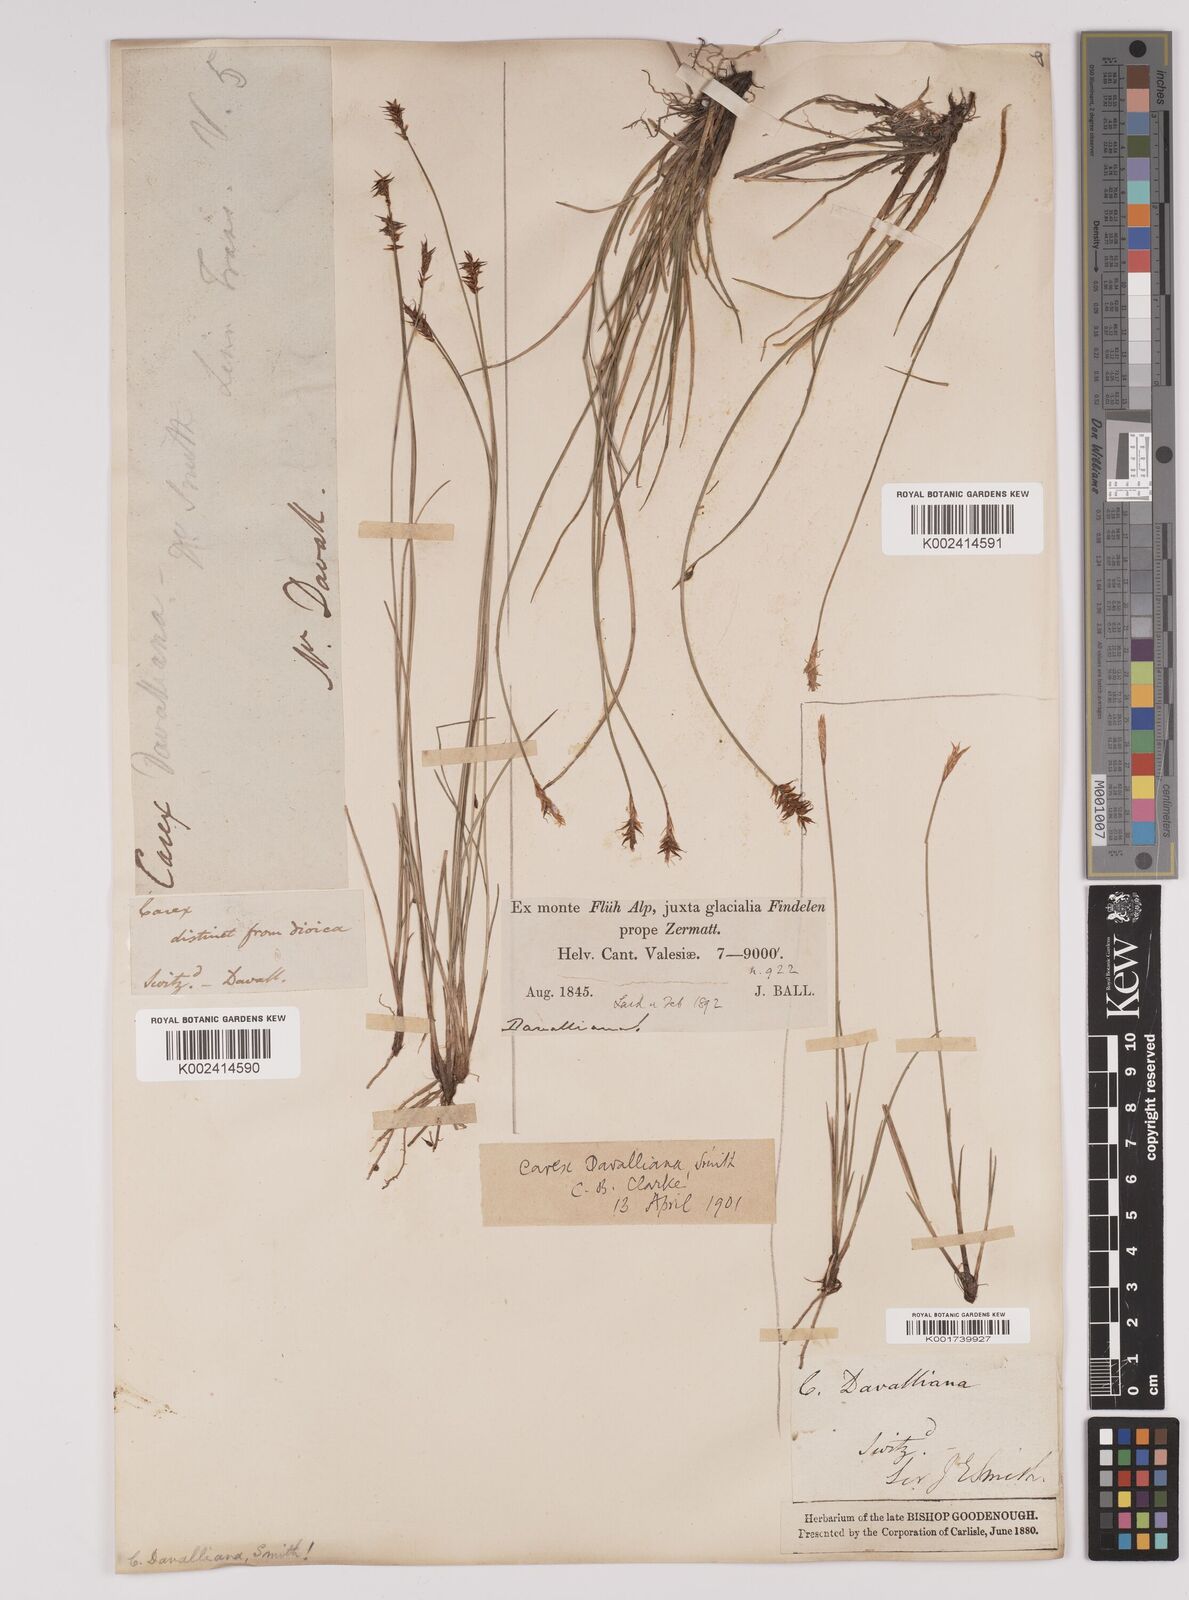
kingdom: Plantae
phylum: Tracheophyta
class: Liliopsida
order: Poales
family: Cyperaceae
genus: Carex
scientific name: Carex davalliana
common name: Davall's sedge
